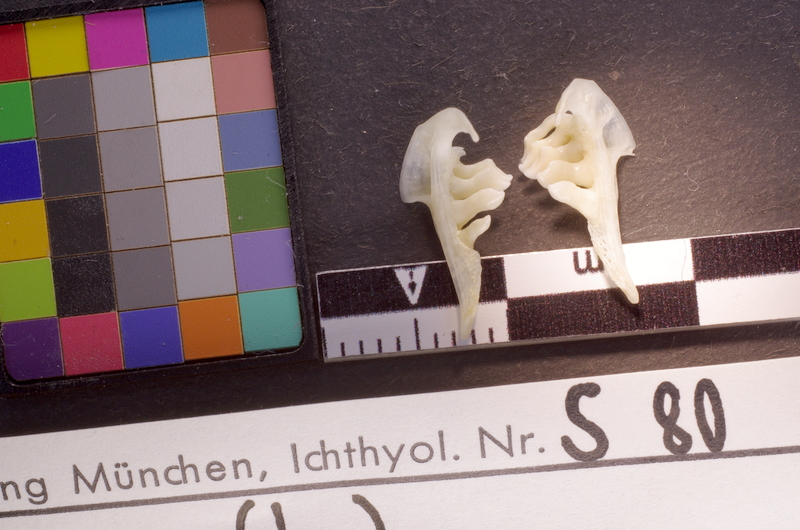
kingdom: Animalia
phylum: Chordata
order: Cypriniformes
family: Cyprinidae
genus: Leuciscus
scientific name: Leuciscus leuciscus
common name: Dace
